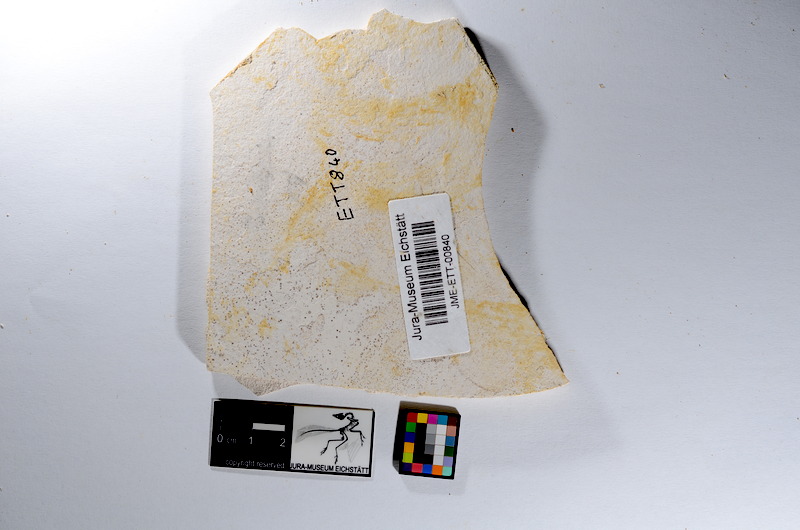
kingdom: Animalia
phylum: Chordata
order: Salmoniformes
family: Orthogonikleithridae
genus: Orthogonikleithrus
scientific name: Orthogonikleithrus hoelli
